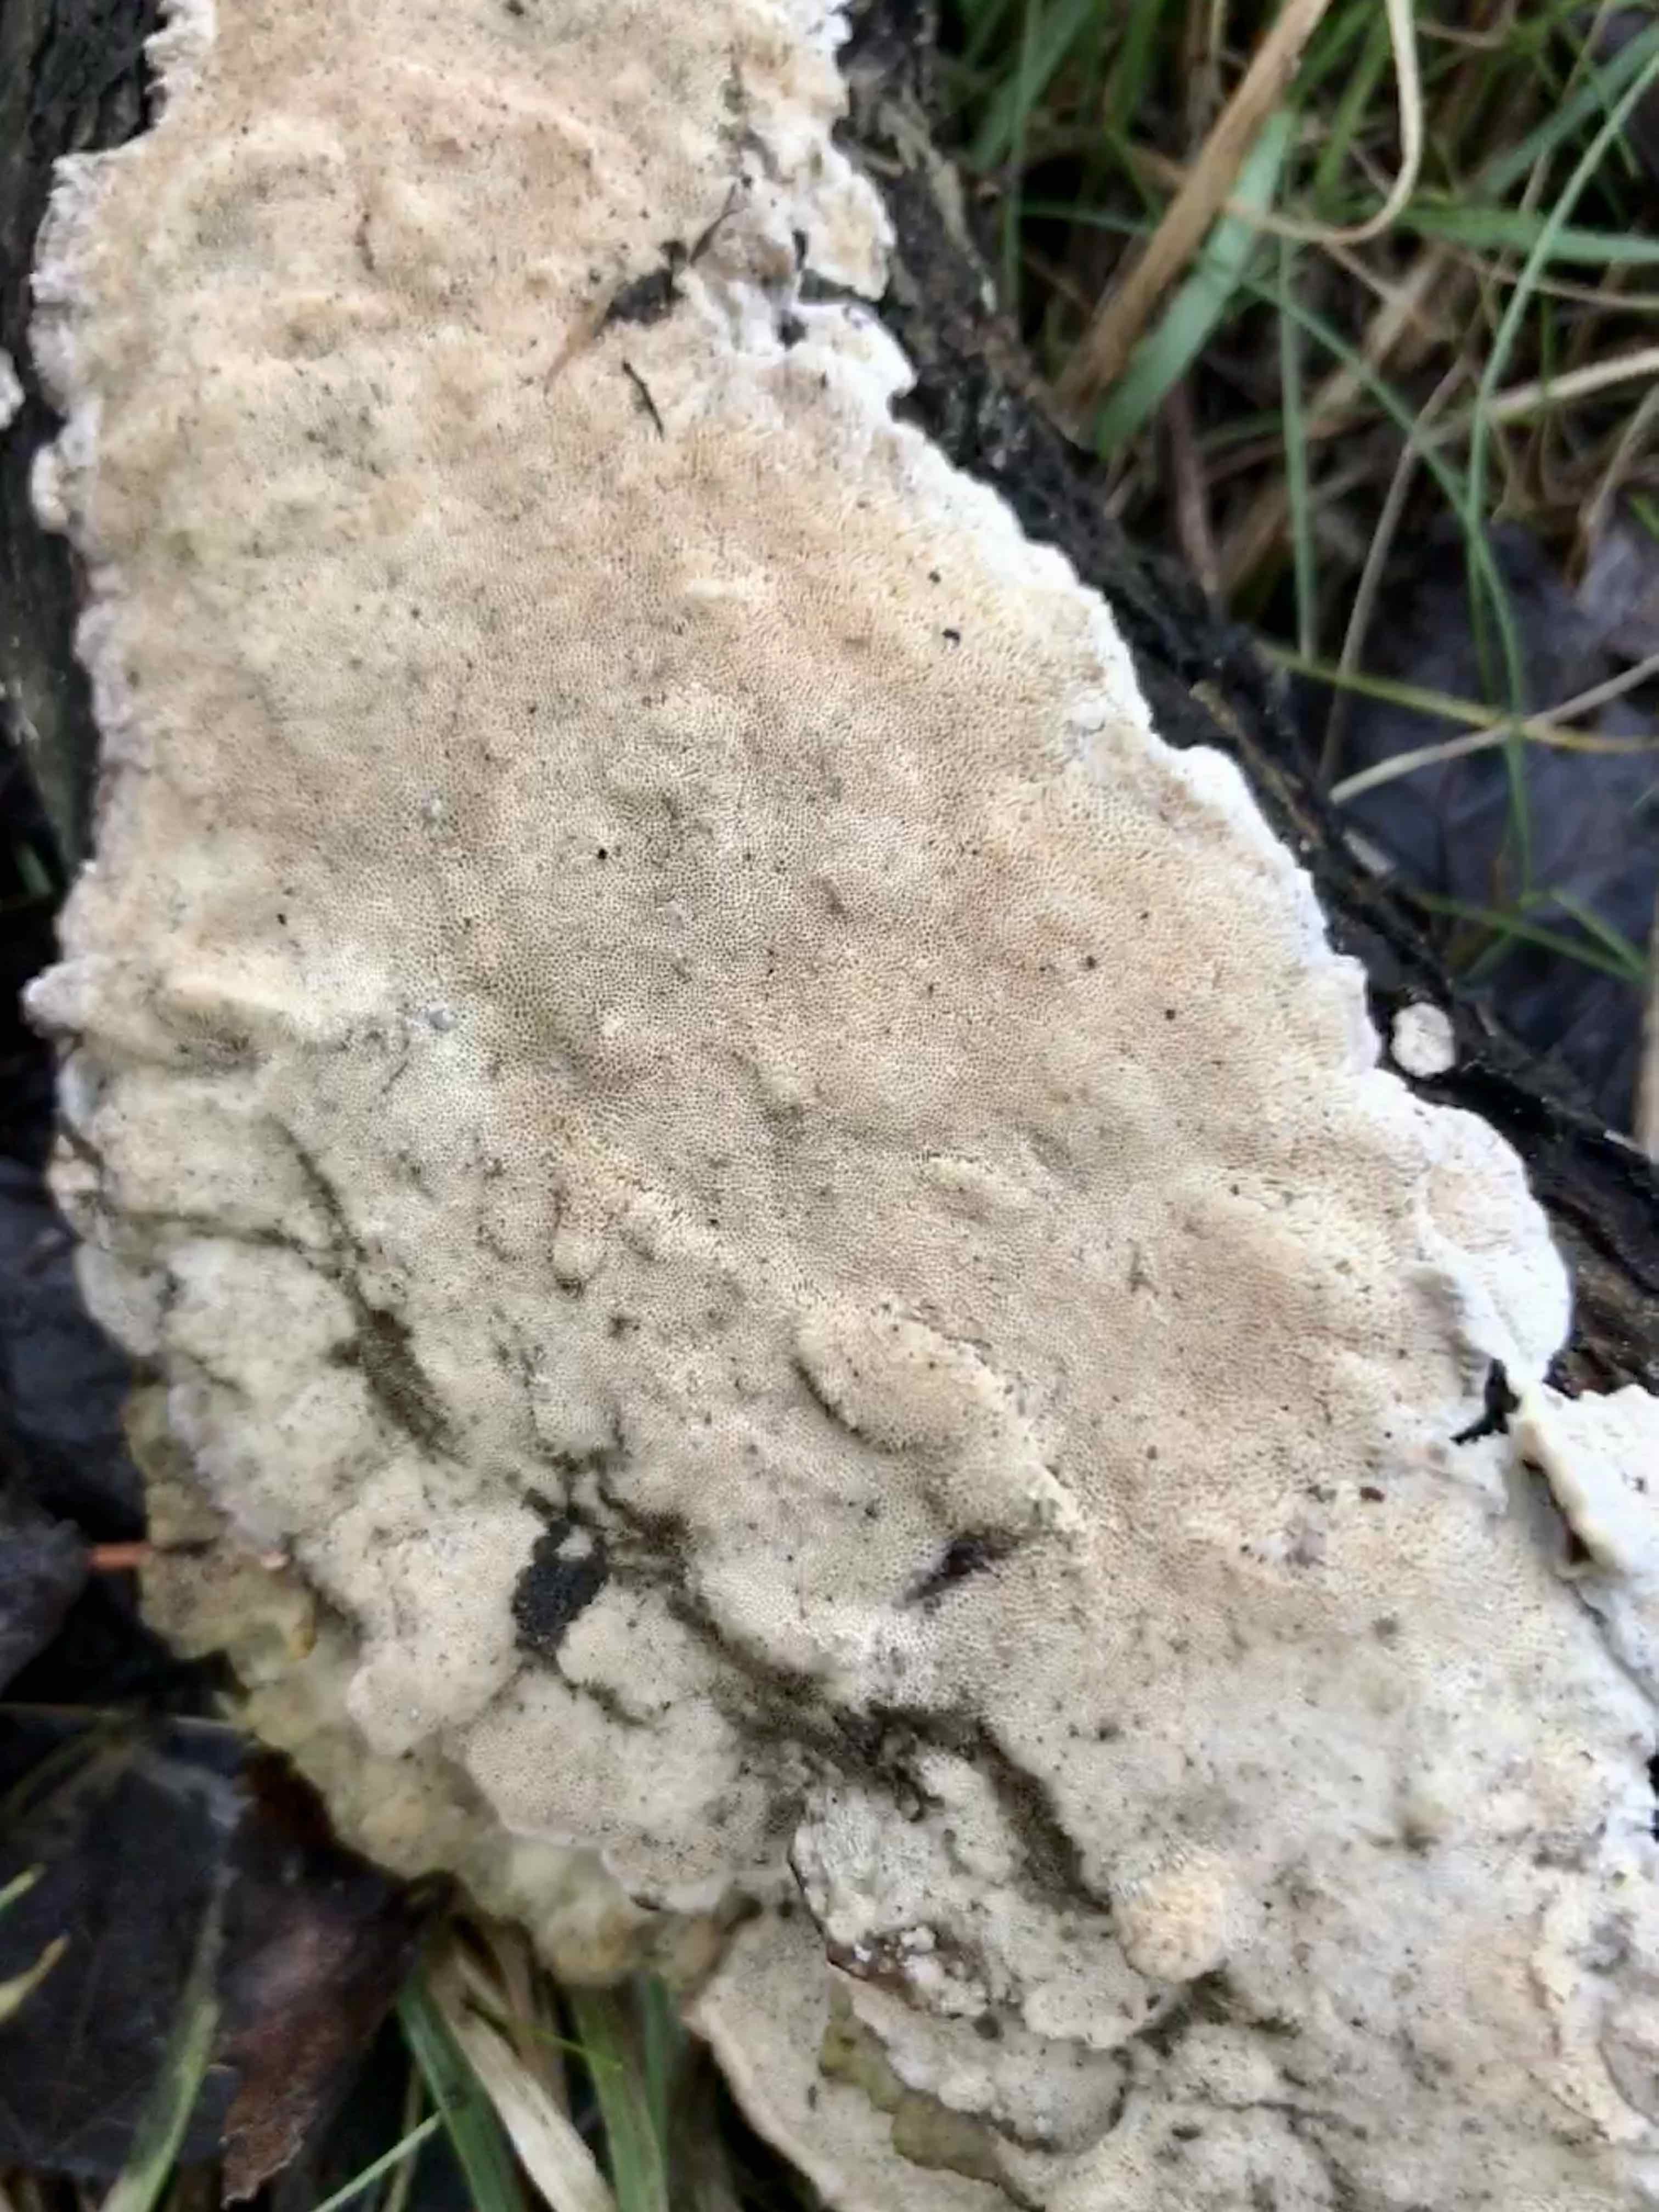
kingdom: Fungi
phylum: Basidiomycota
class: Agaricomycetes
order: Polyporales
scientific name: Polyporales
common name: poresvampordenen
